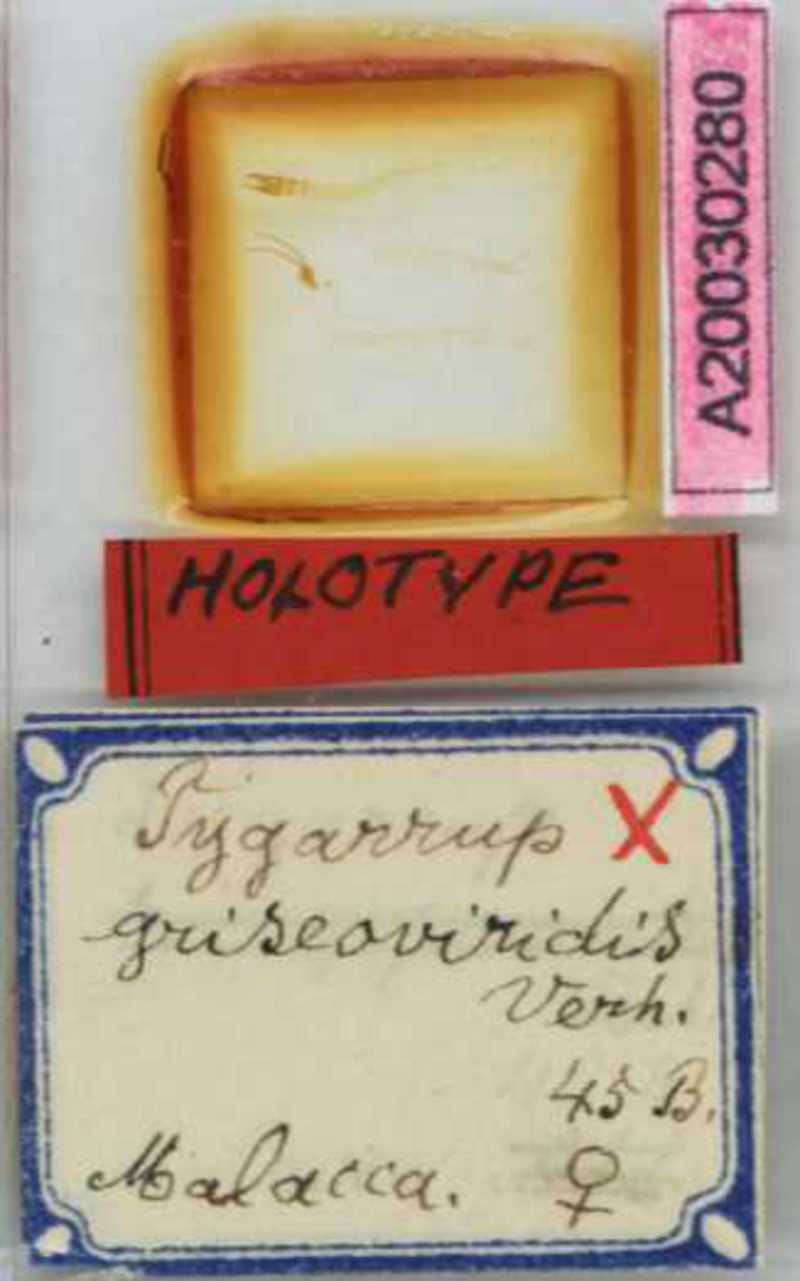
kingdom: Animalia
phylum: Arthropoda
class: Chilopoda
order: Geophilomorpha
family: Mecistocephalidae
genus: Tygarrup
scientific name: Tygarrup griseoviridis
